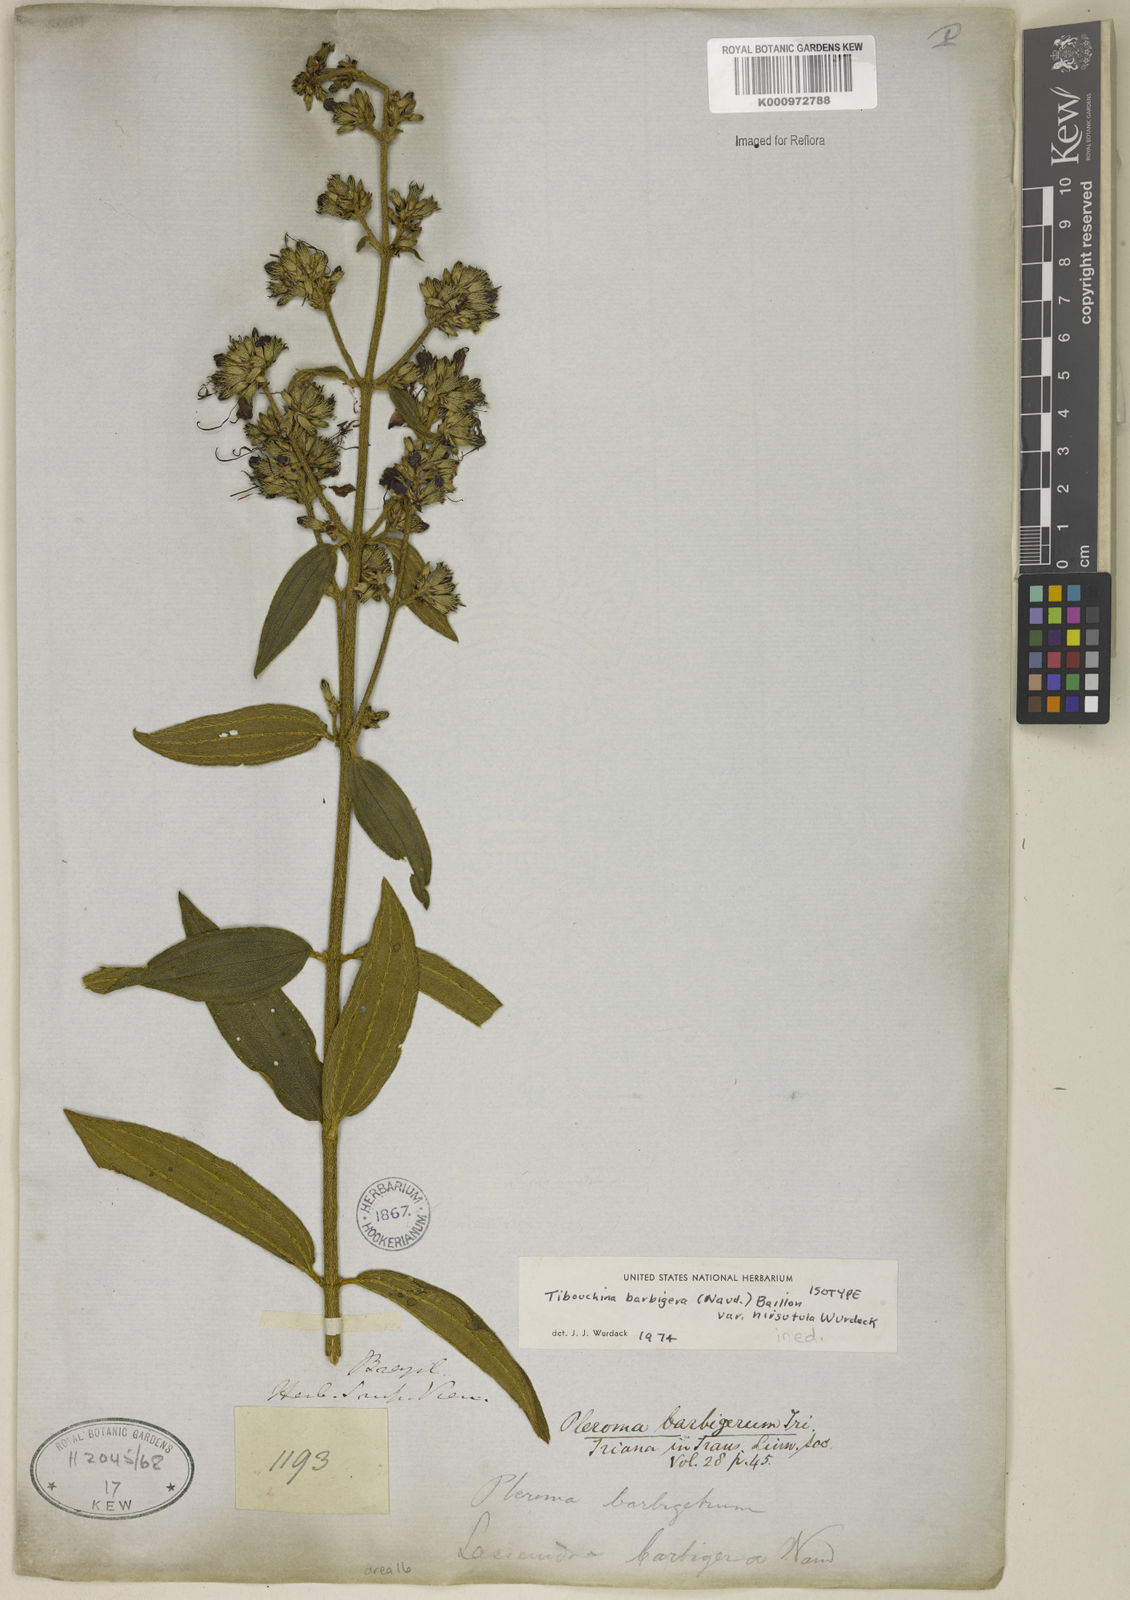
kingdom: Plantae
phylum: Tracheophyta
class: Magnoliopsida
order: Myrtales
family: Melastomataceae
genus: Pleroma
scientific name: Pleroma barbigerum
